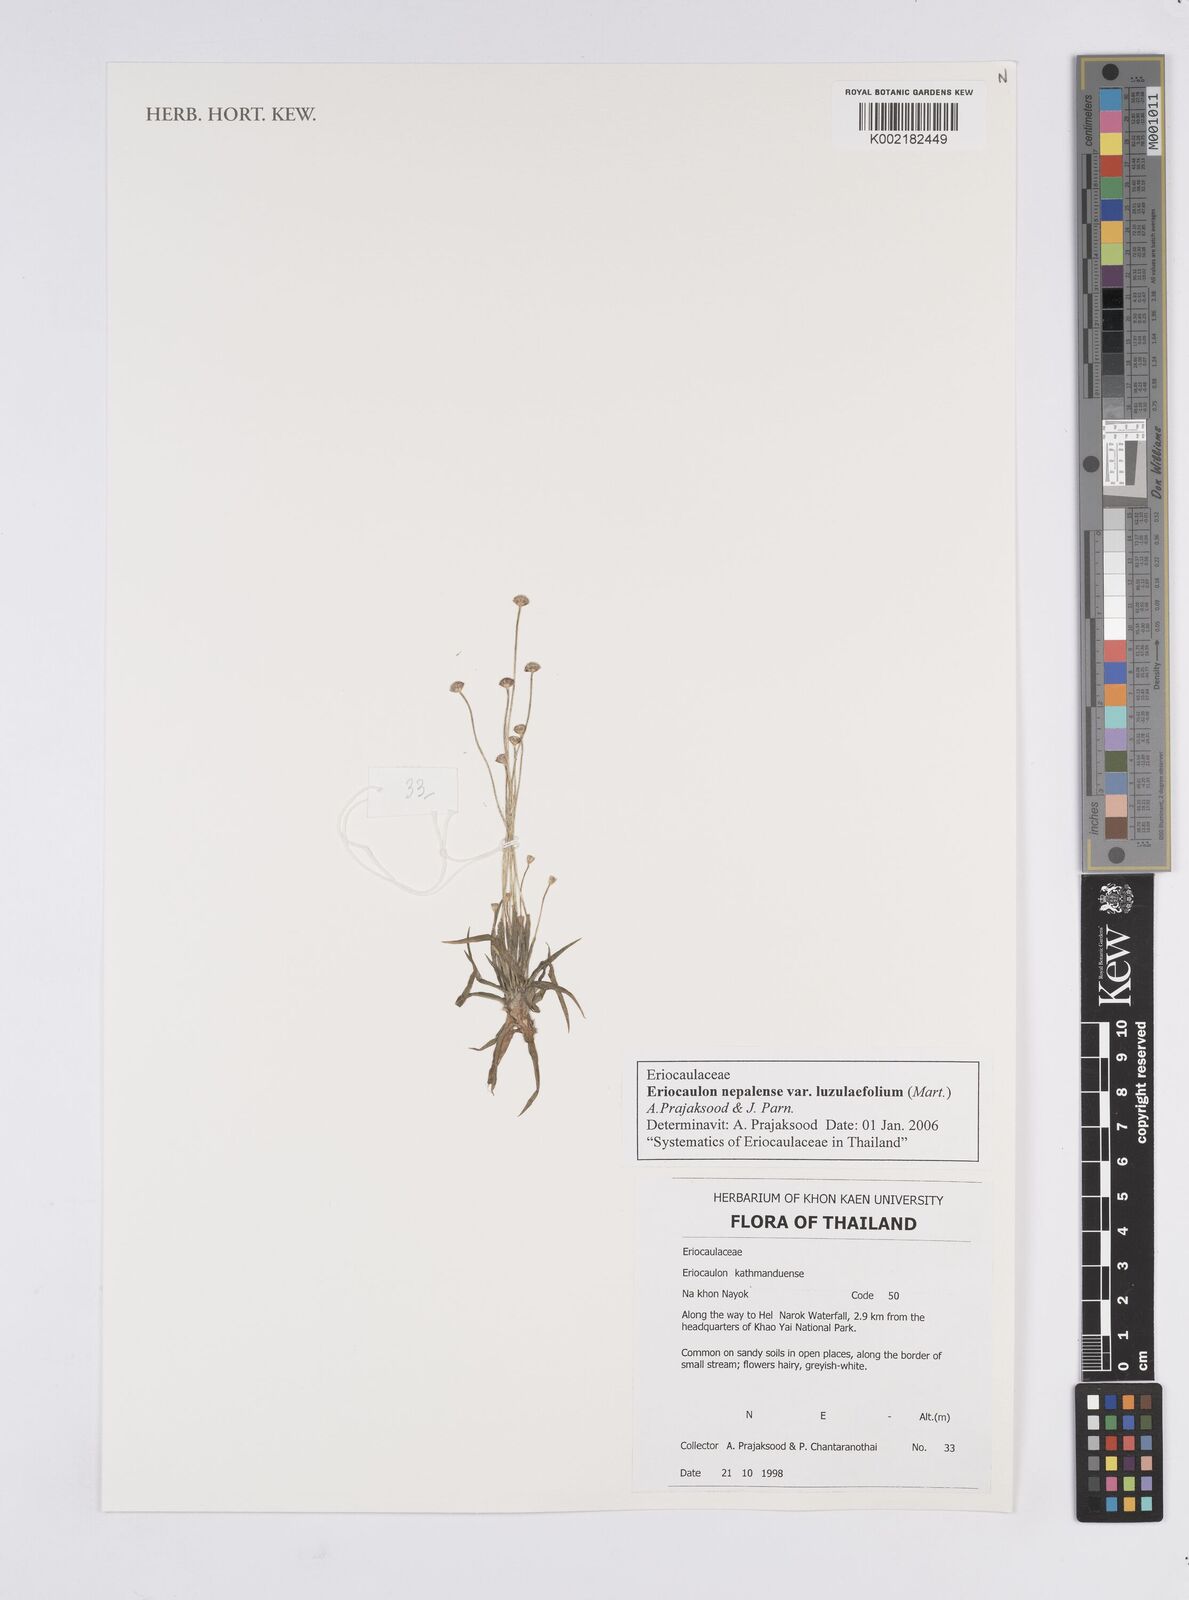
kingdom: Plantae
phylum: Tracheophyta
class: Liliopsida
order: Poales
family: Eriocaulaceae
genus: Eriocaulon
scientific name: Eriocaulon nepalense
